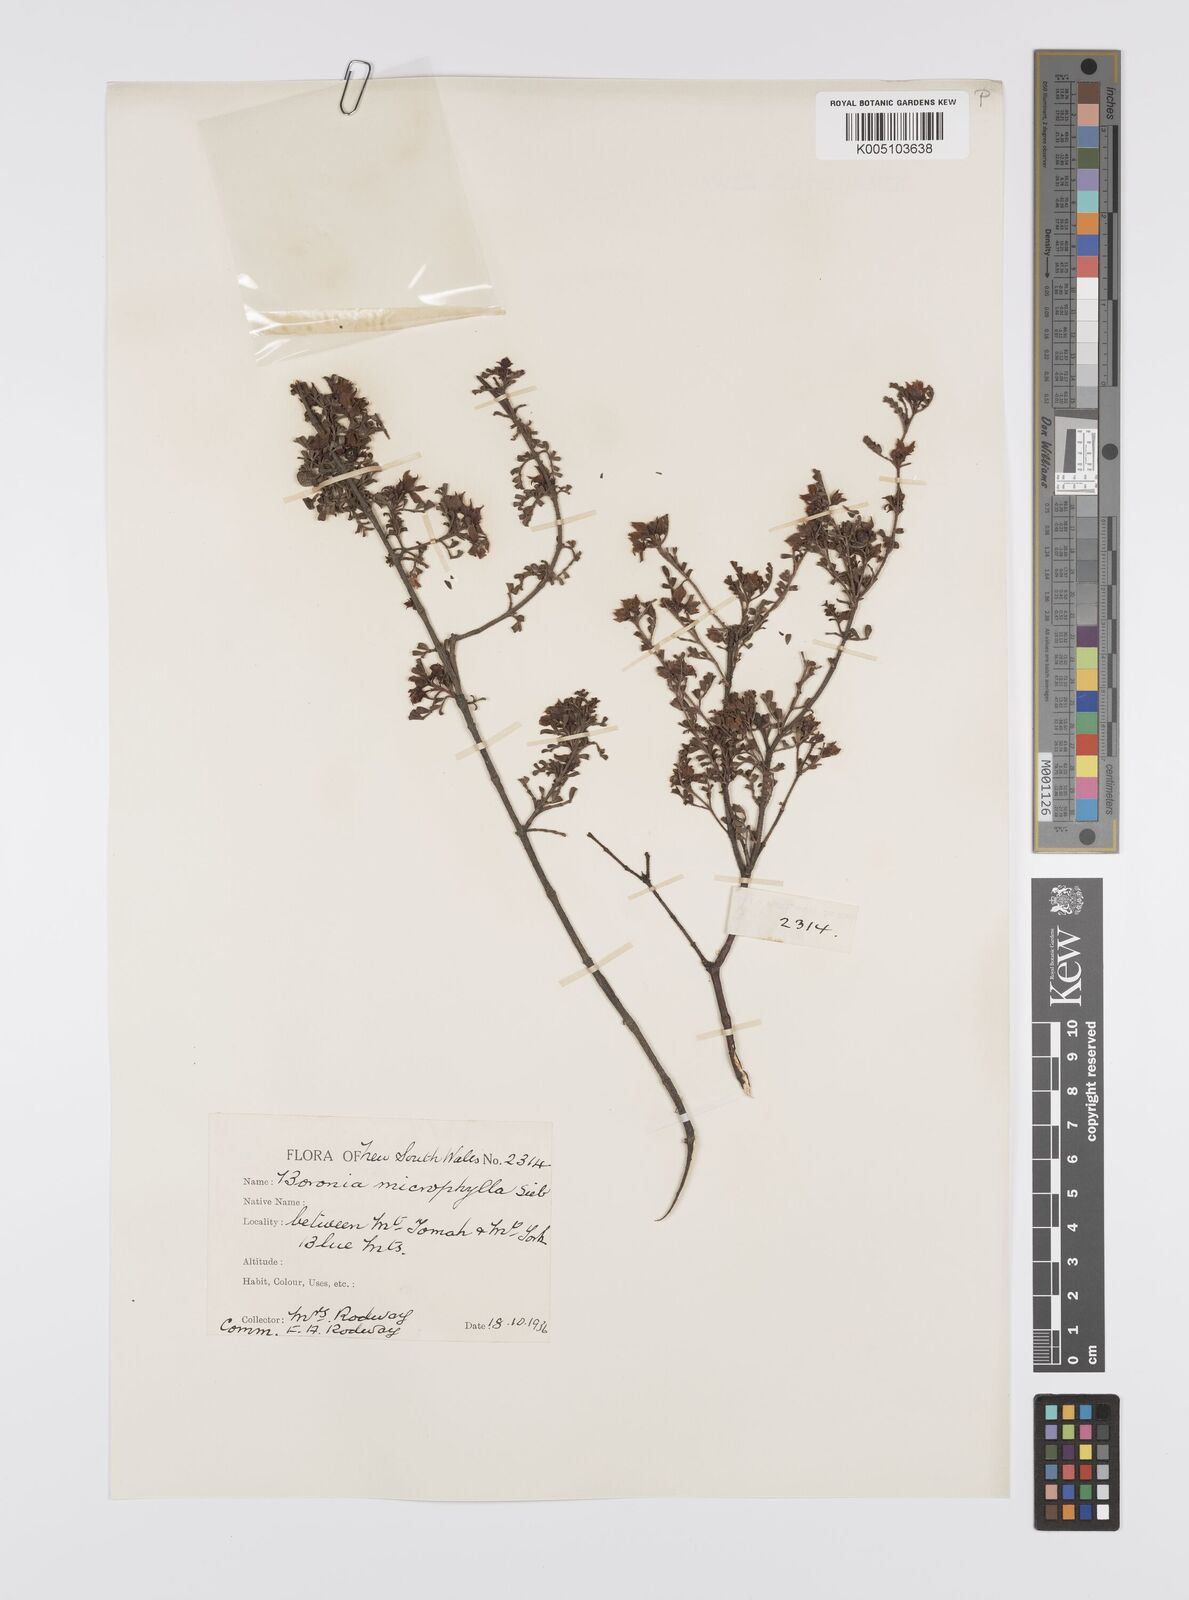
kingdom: Plantae
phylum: Tracheophyta
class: Magnoliopsida
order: Sapindales
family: Rutaceae
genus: Boronia
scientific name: Boronia microphylla
